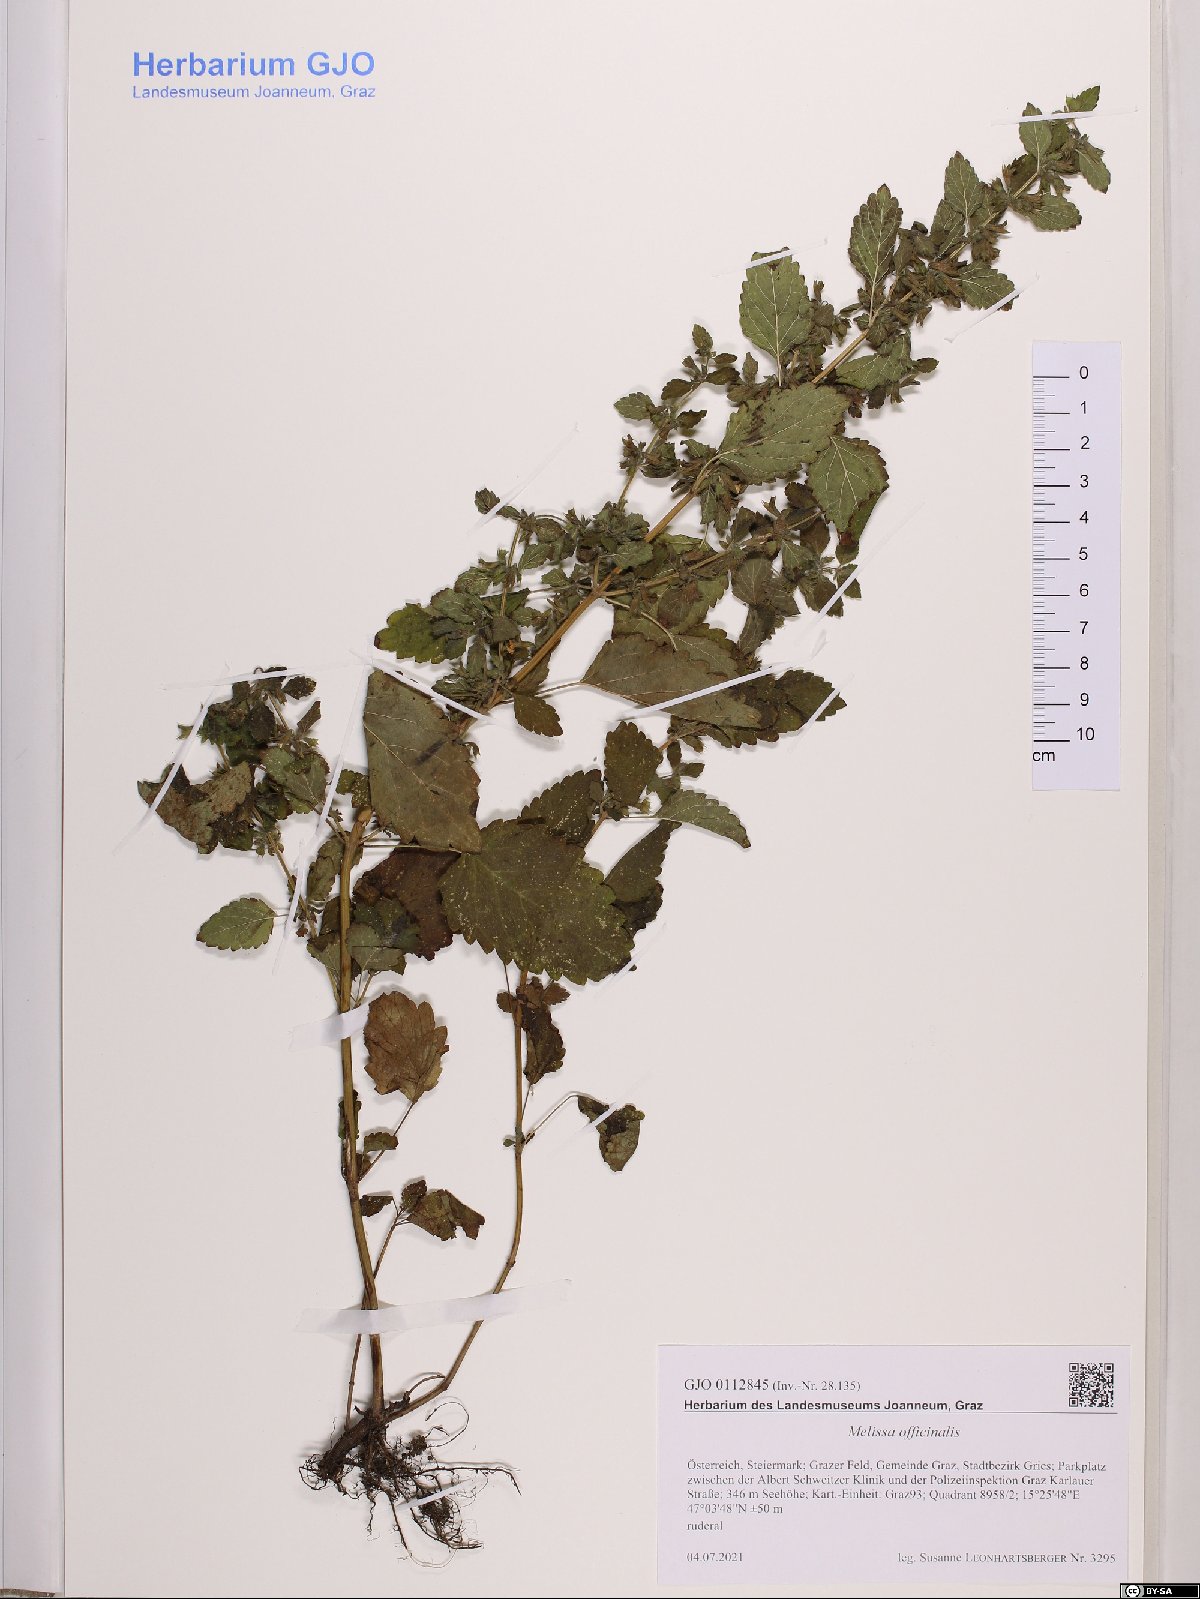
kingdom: Plantae
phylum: Tracheophyta
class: Magnoliopsida
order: Lamiales
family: Lamiaceae
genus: Melissa
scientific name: Melissa officinalis
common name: Balm
